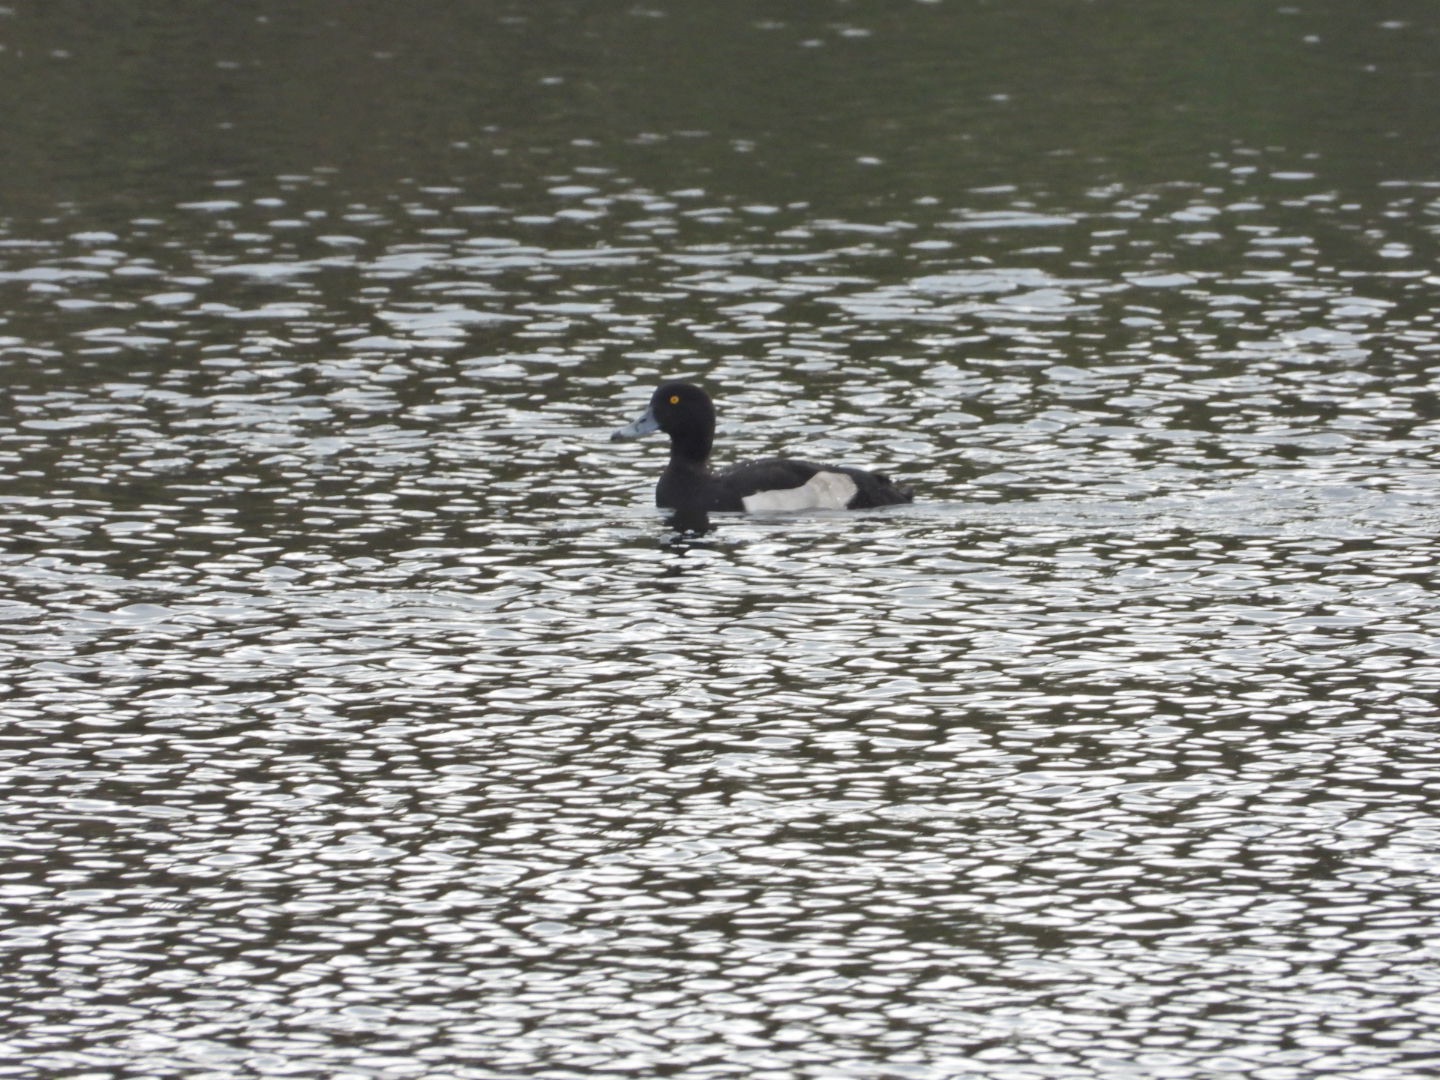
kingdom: Animalia
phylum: Chordata
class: Aves
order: Anseriformes
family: Anatidae
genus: Aythya
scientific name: Aythya fuligula
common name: Troldand
